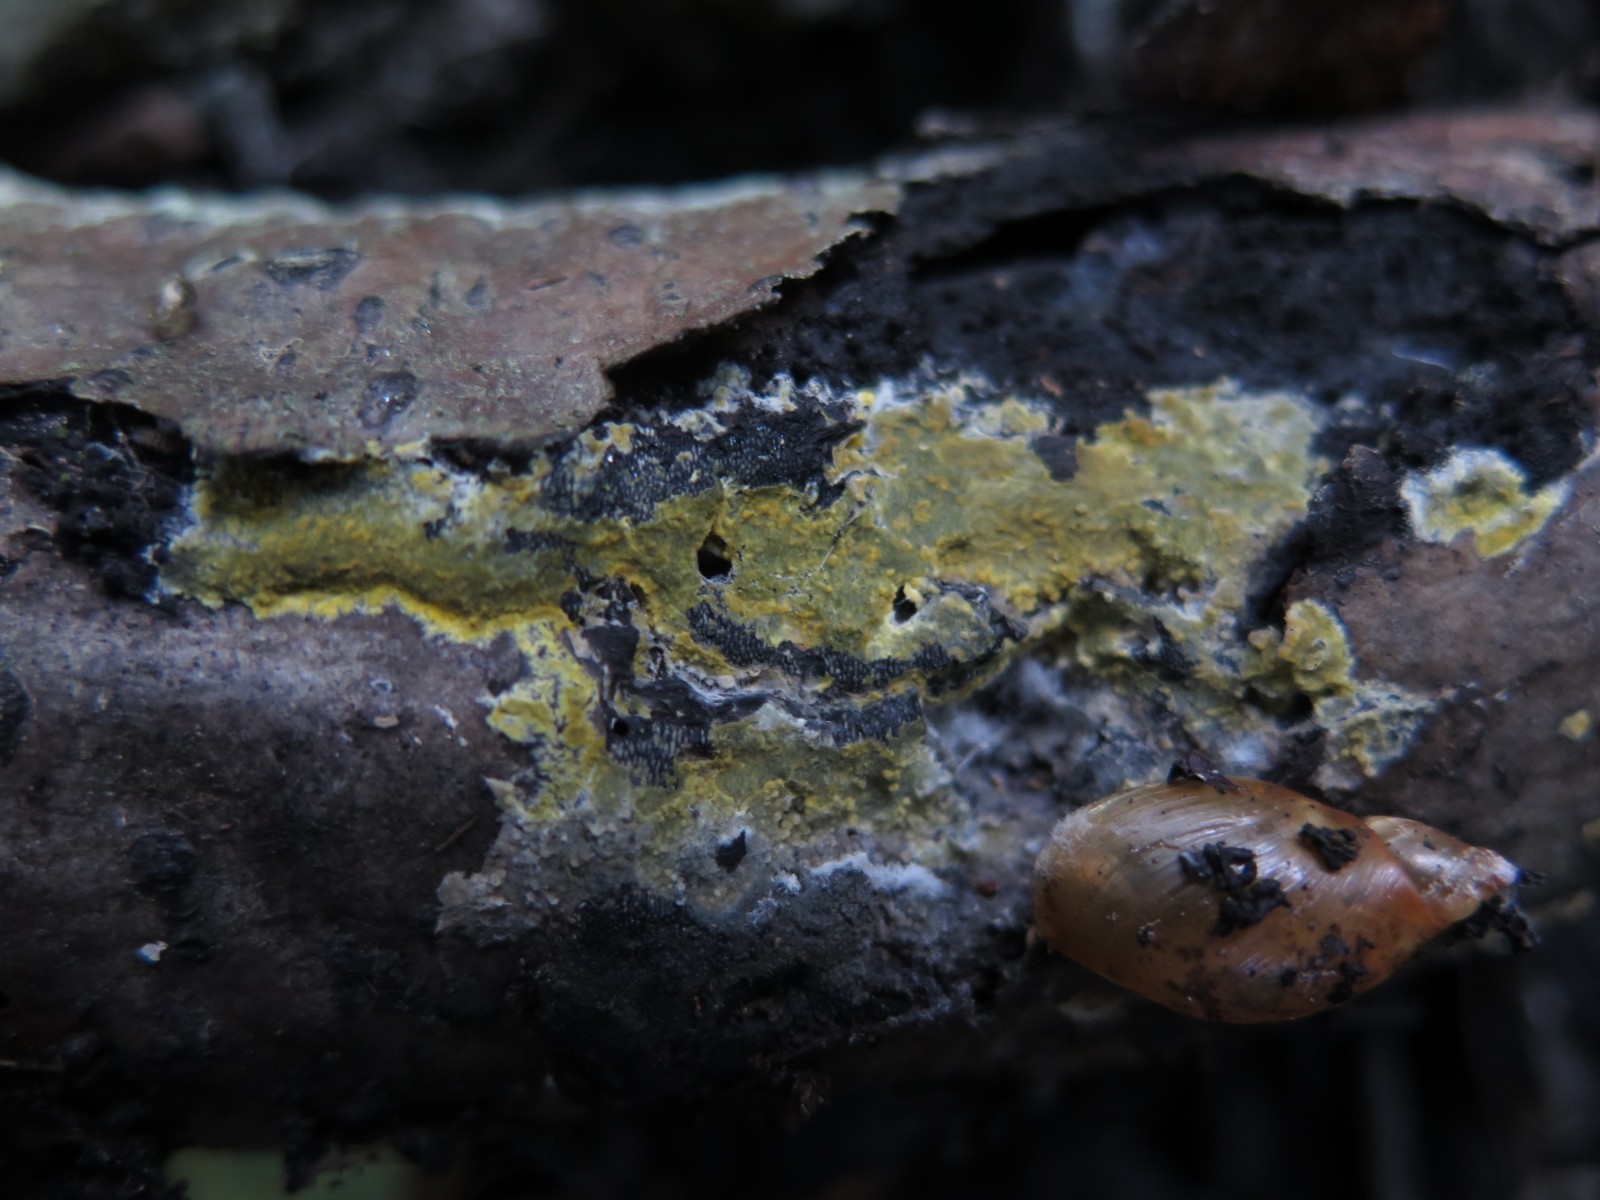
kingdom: Fungi
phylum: Basidiomycota
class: Agaricomycetes
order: Polyporales
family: Meruliaceae
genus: Phlebiodontia
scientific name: Phlebiodontia subochracea
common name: svovl-åresvamp
